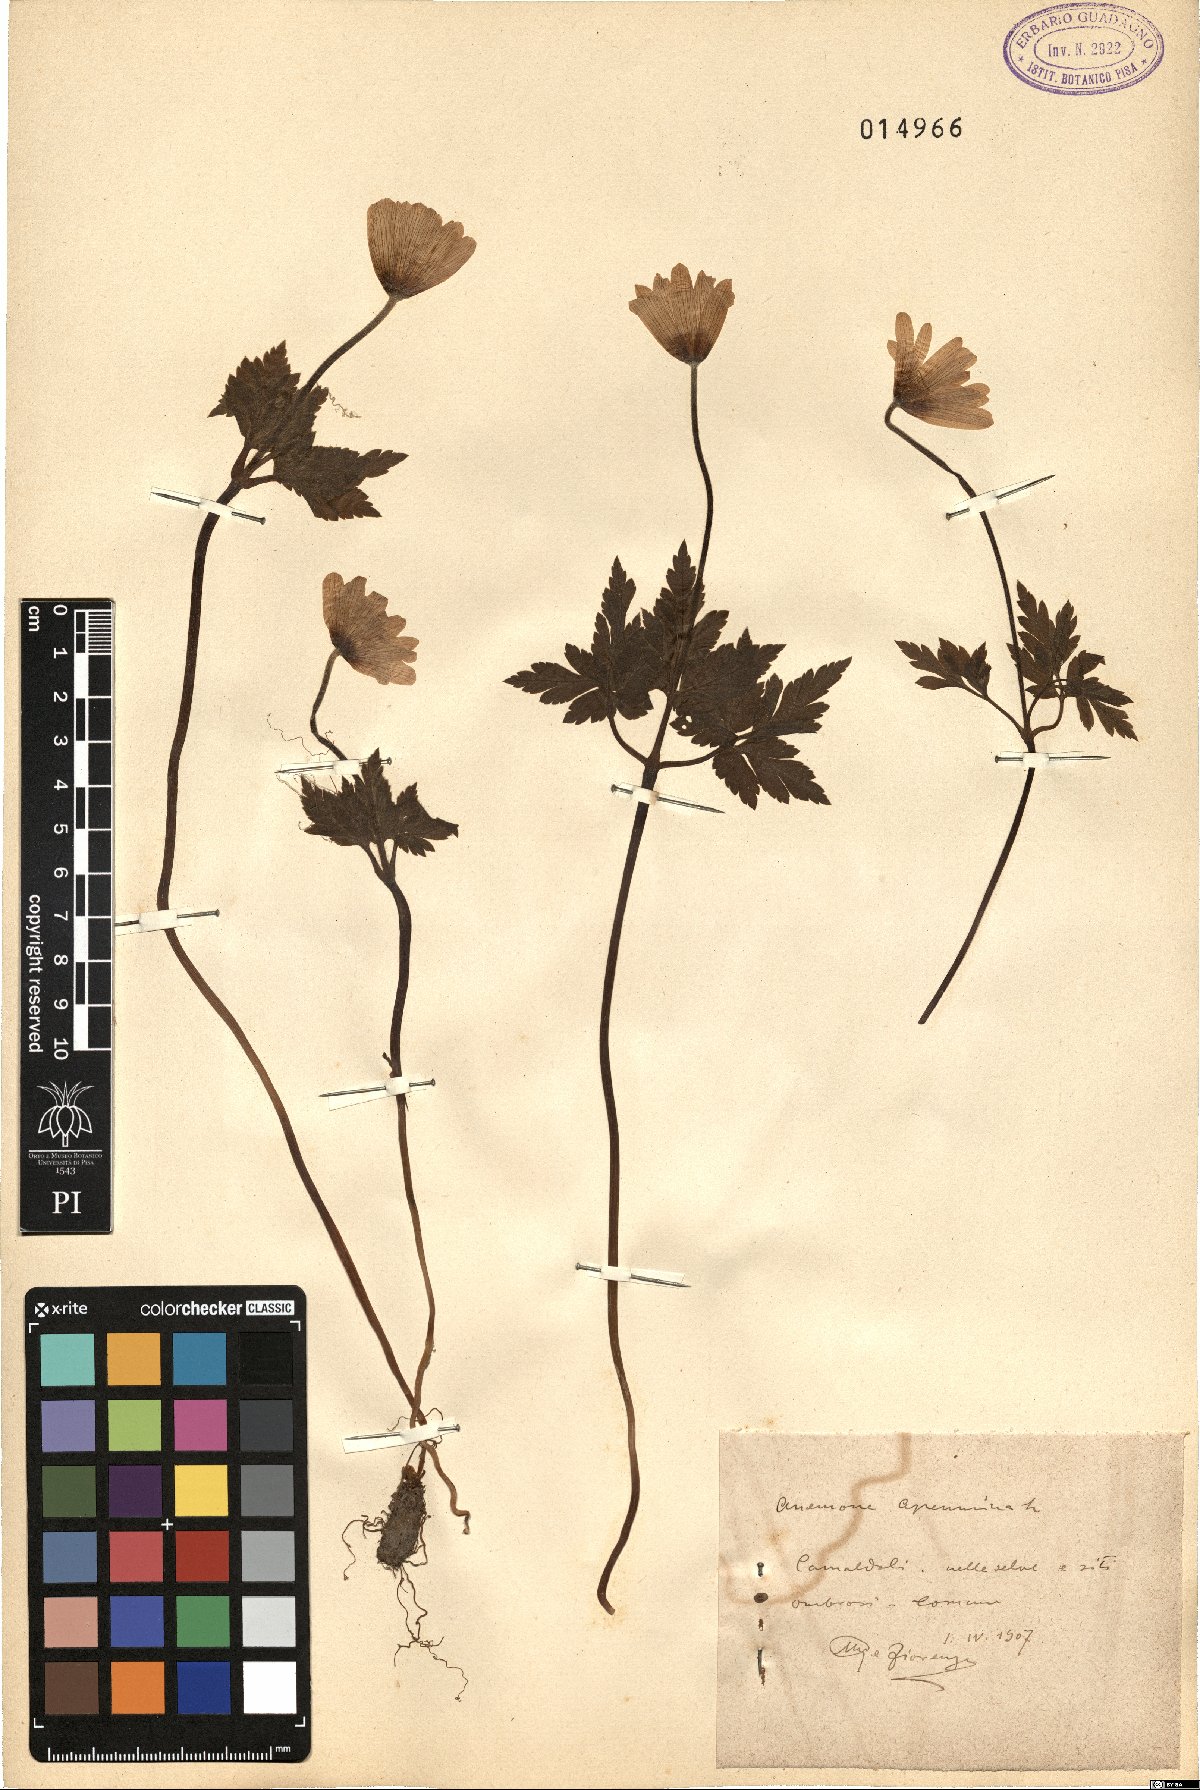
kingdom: Plantae
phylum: Tracheophyta
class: Magnoliopsida
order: Ranunculales
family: Ranunculaceae
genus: Anemone
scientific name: Anemone apennina
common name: Blue anemone
